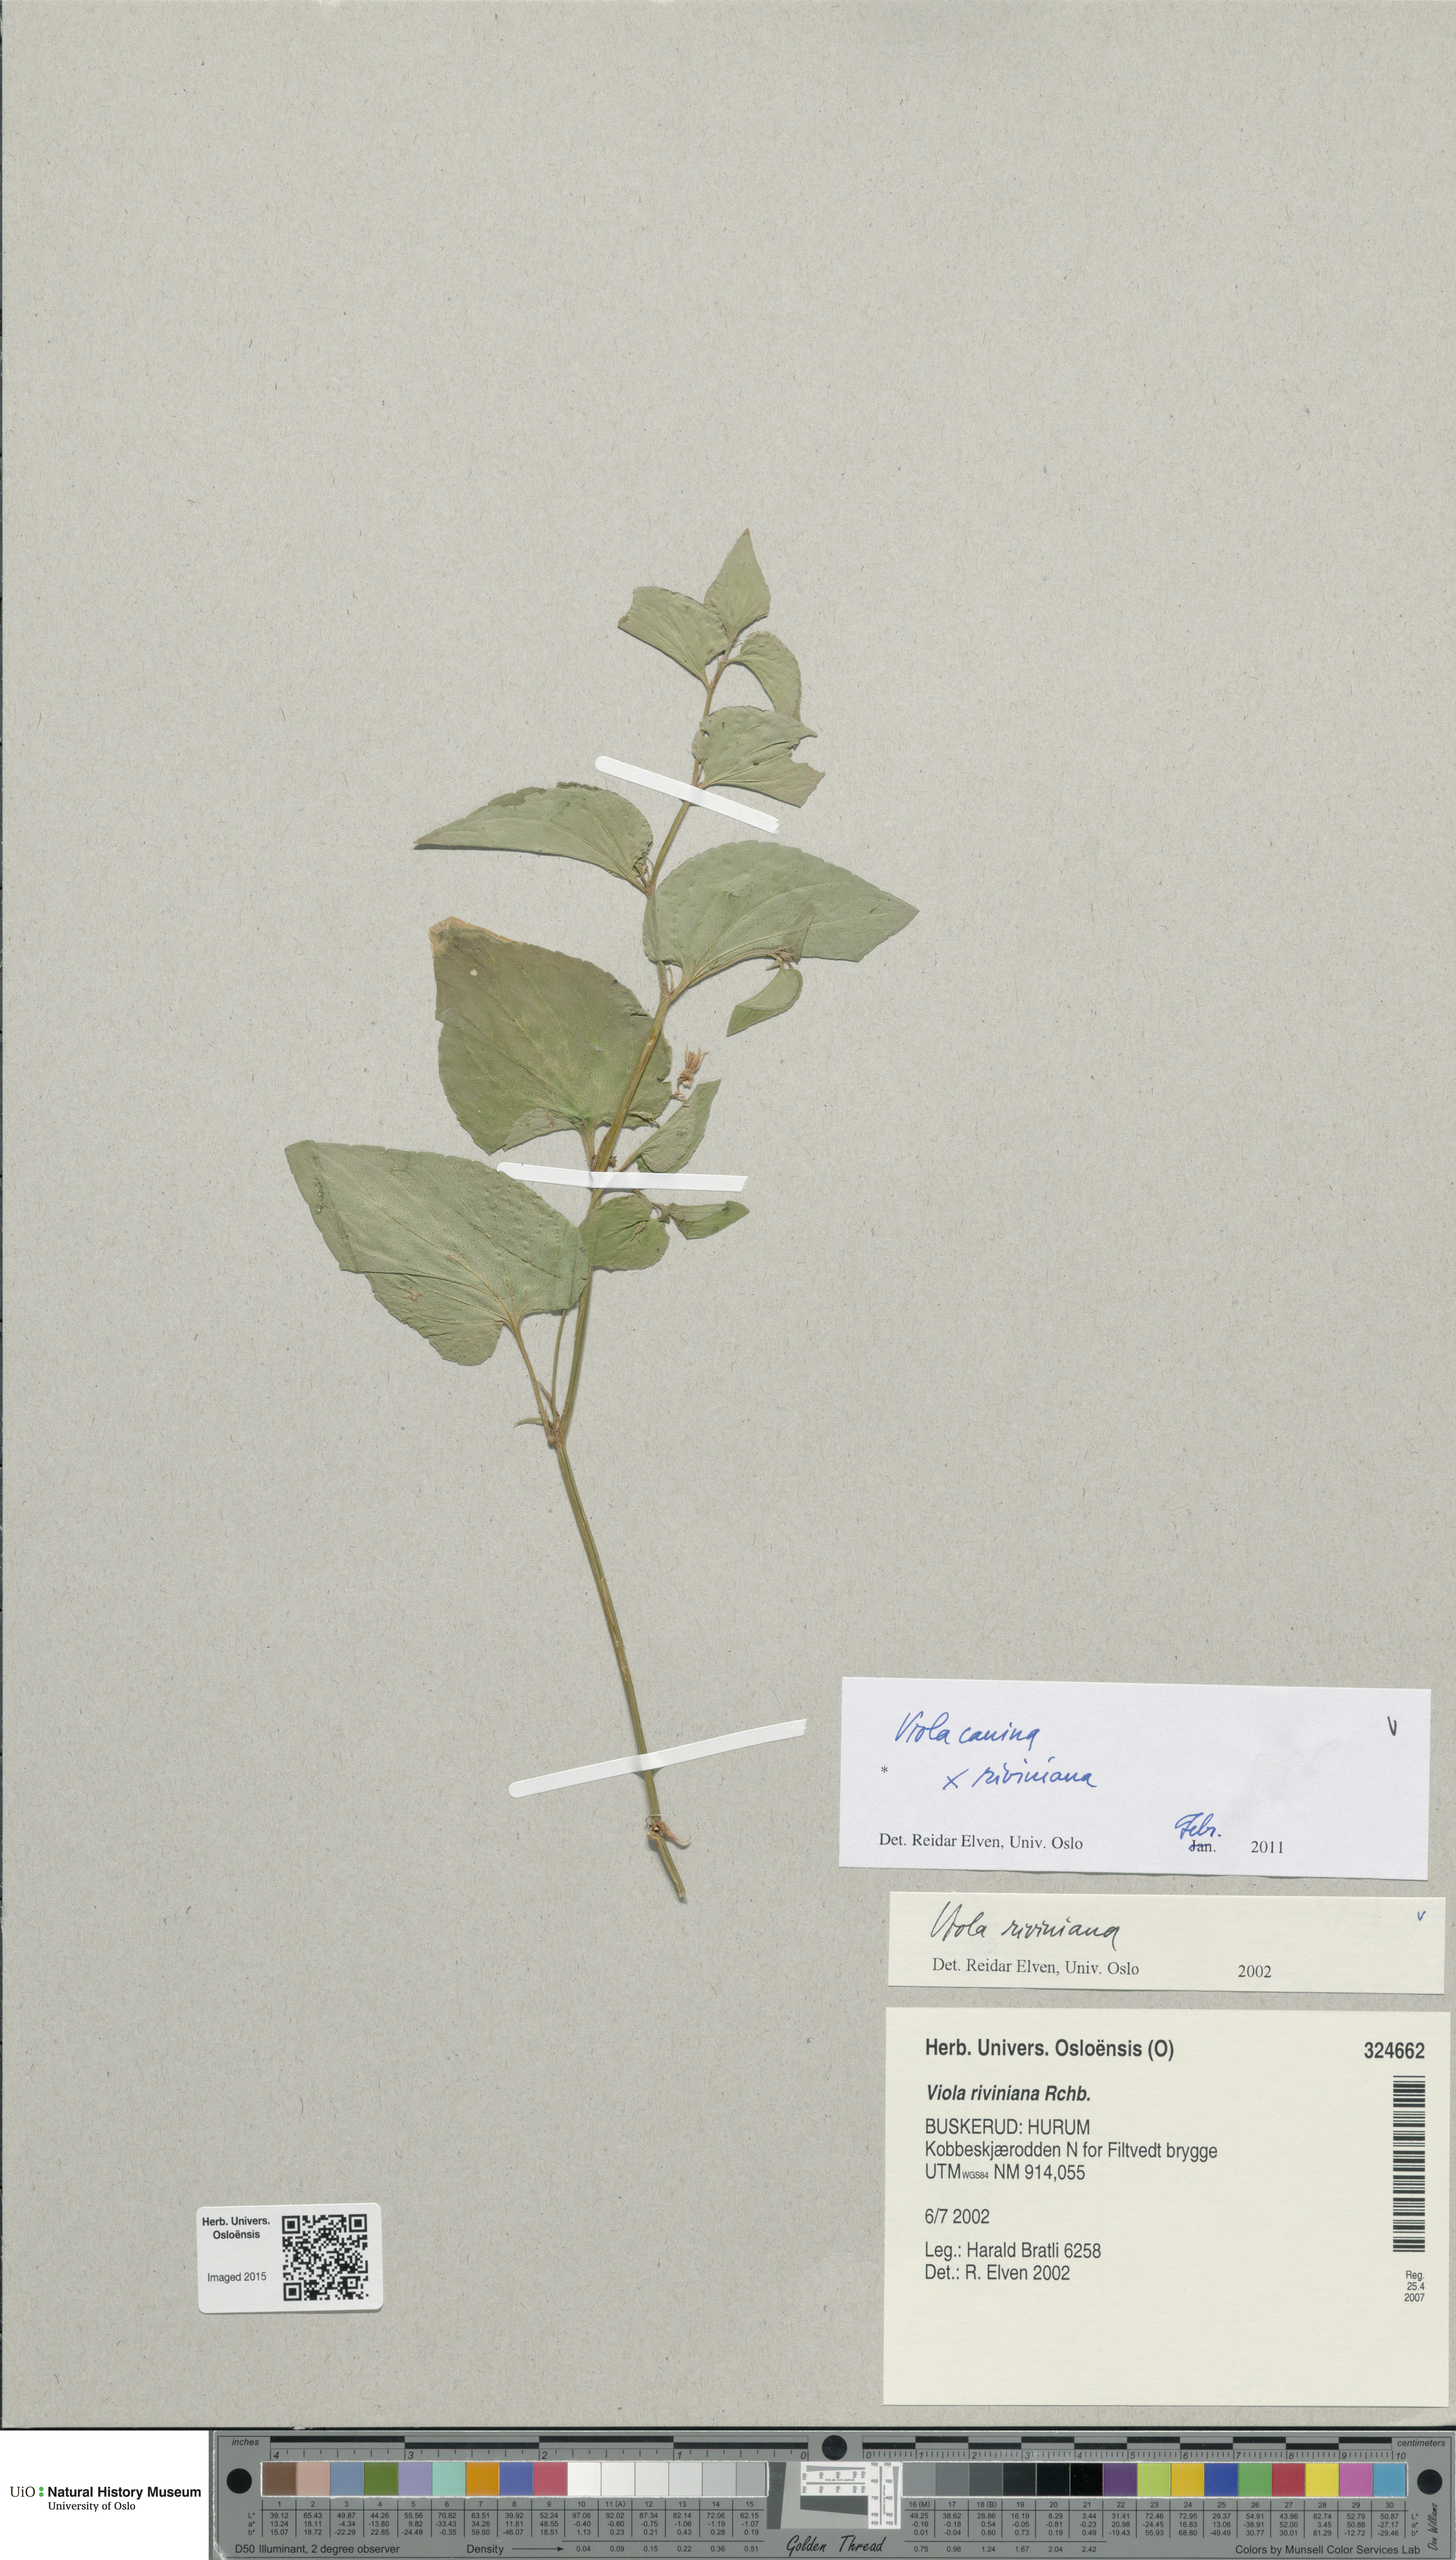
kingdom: Plantae
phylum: Tracheophyta
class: Magnoliopsida
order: Malpighiales
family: Violaceae
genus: Viola
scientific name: Viola
